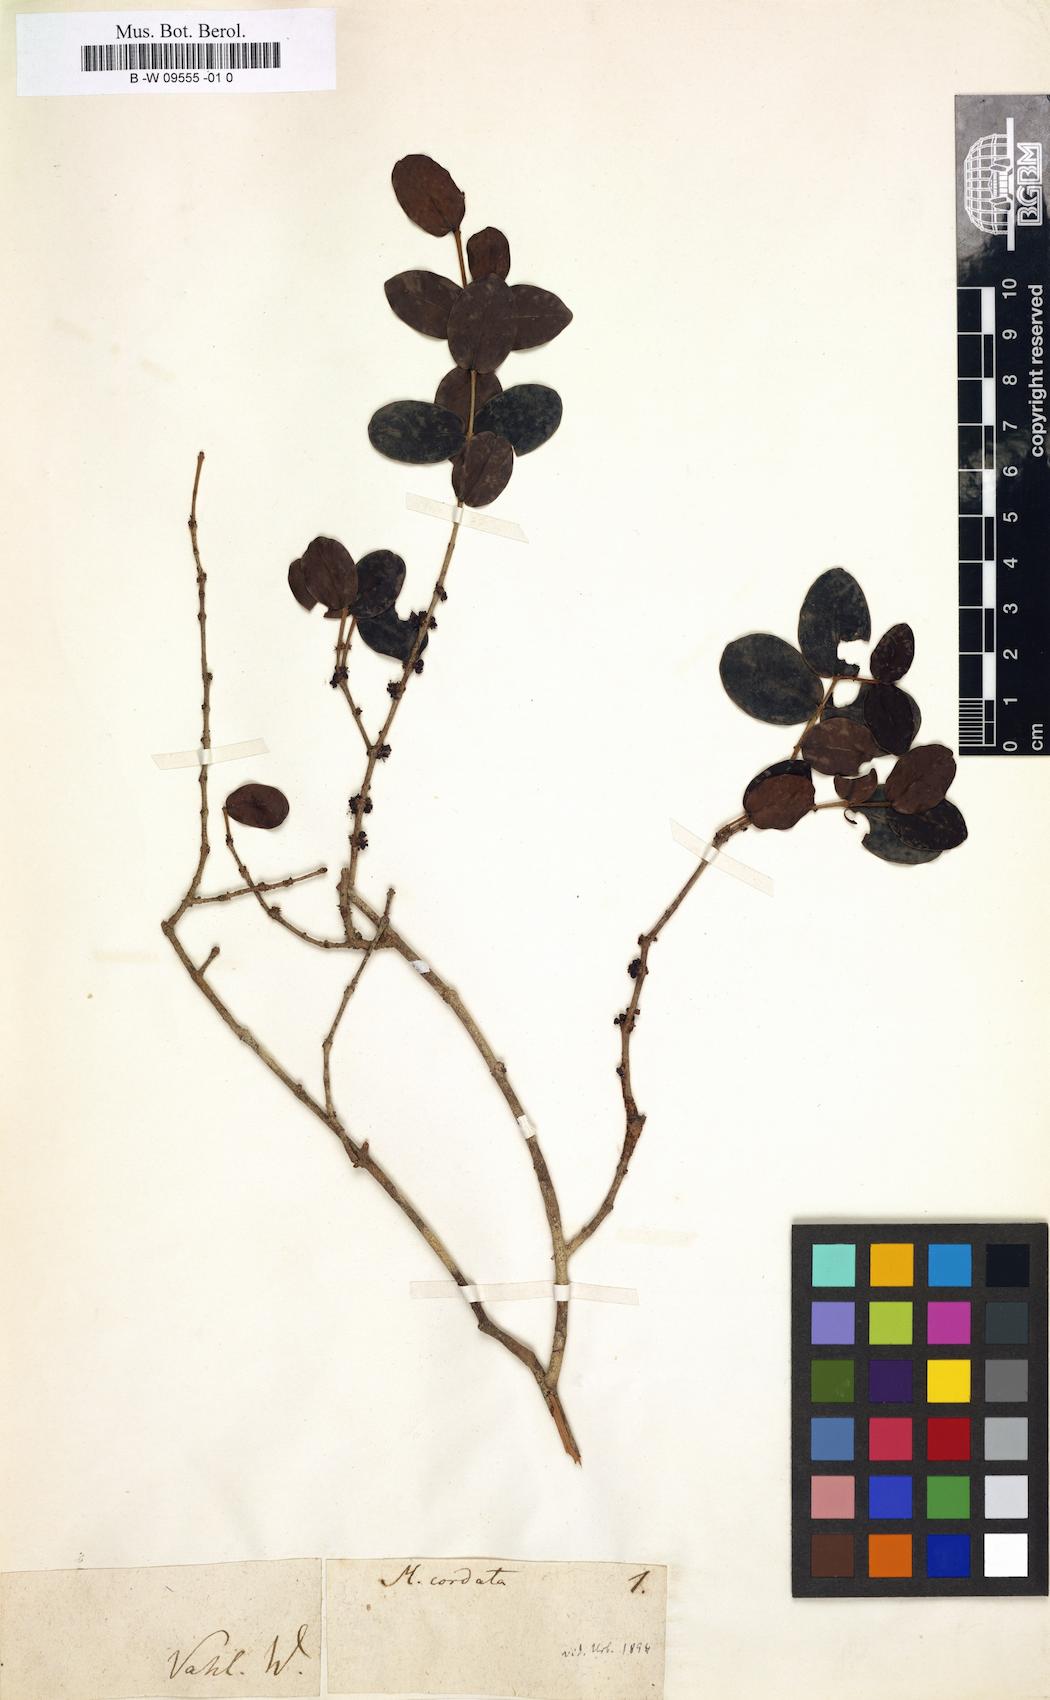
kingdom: Plantae
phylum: Tracheophyta
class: Magnoliopsida
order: Myrtales
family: Myrtaceae
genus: Eugenia
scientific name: Eugenia cordata
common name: Lathberry
